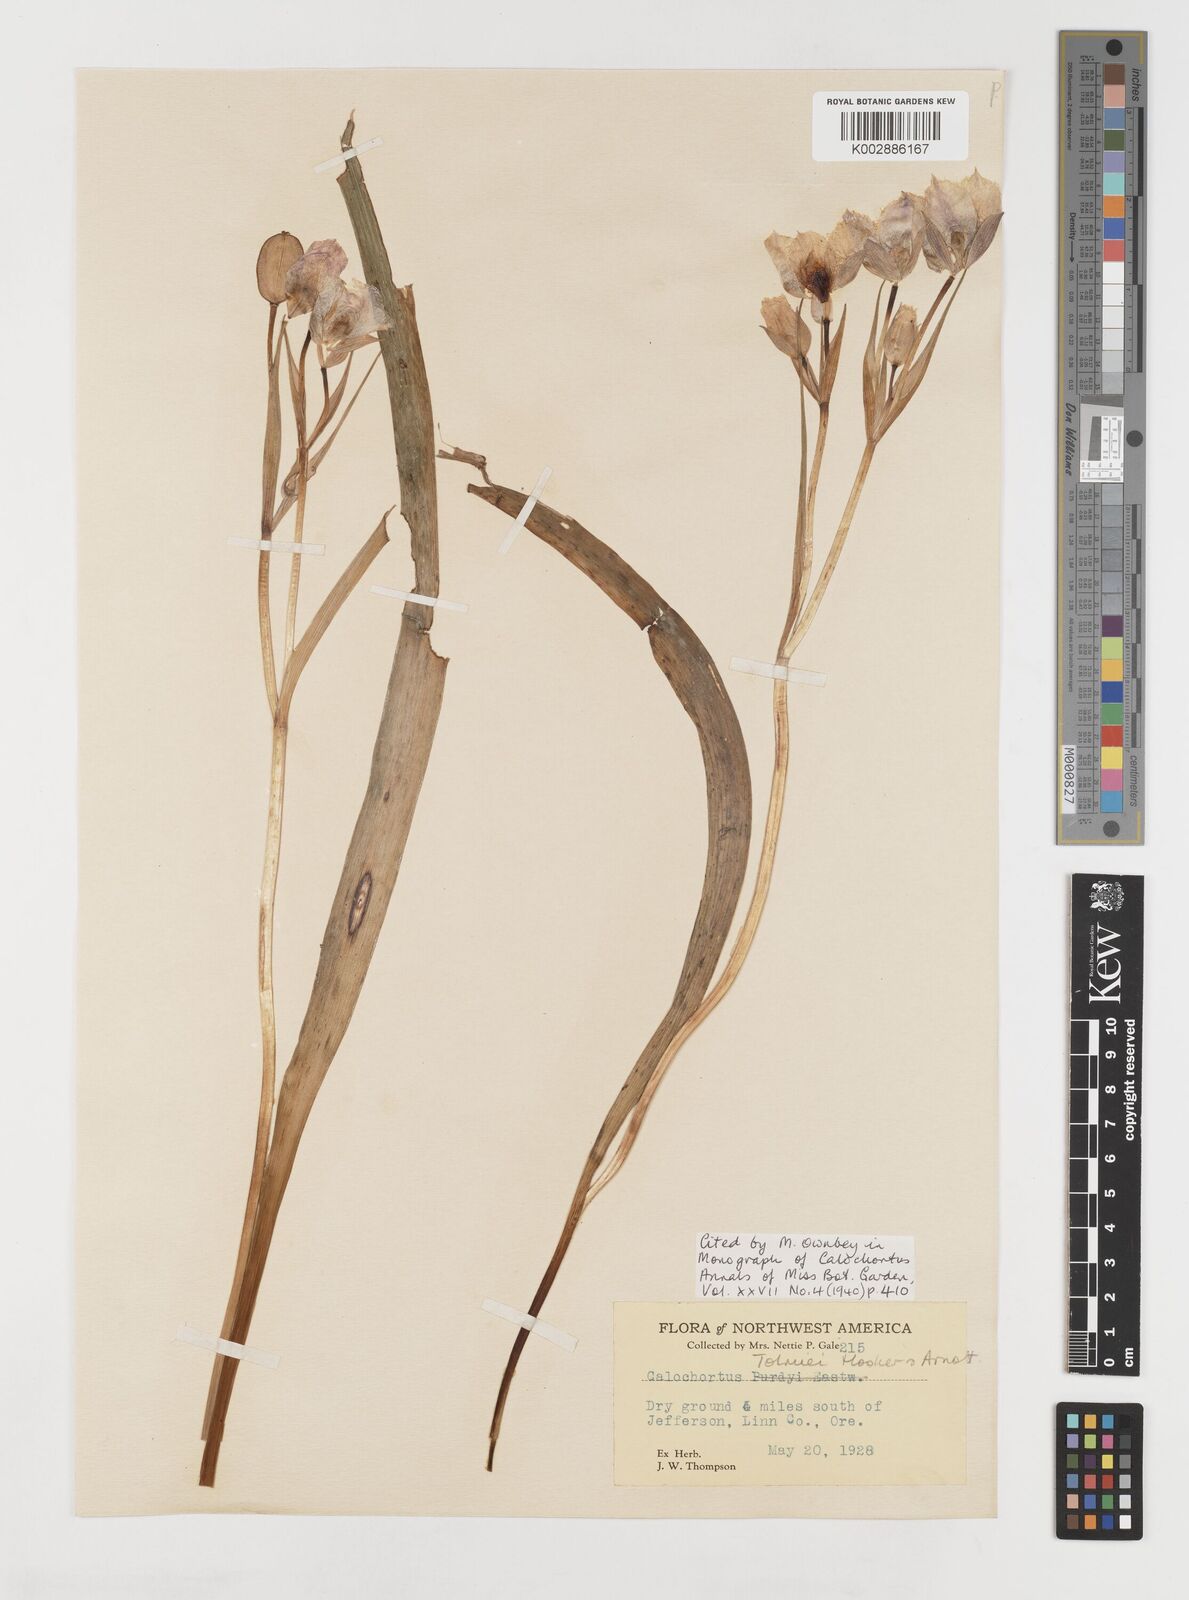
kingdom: Plantae
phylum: Tracheophyta
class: Liliopsida
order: Liliales
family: Liliaceae
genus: Calochortus
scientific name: Calochortus tolmiei
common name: Pussy-ears
